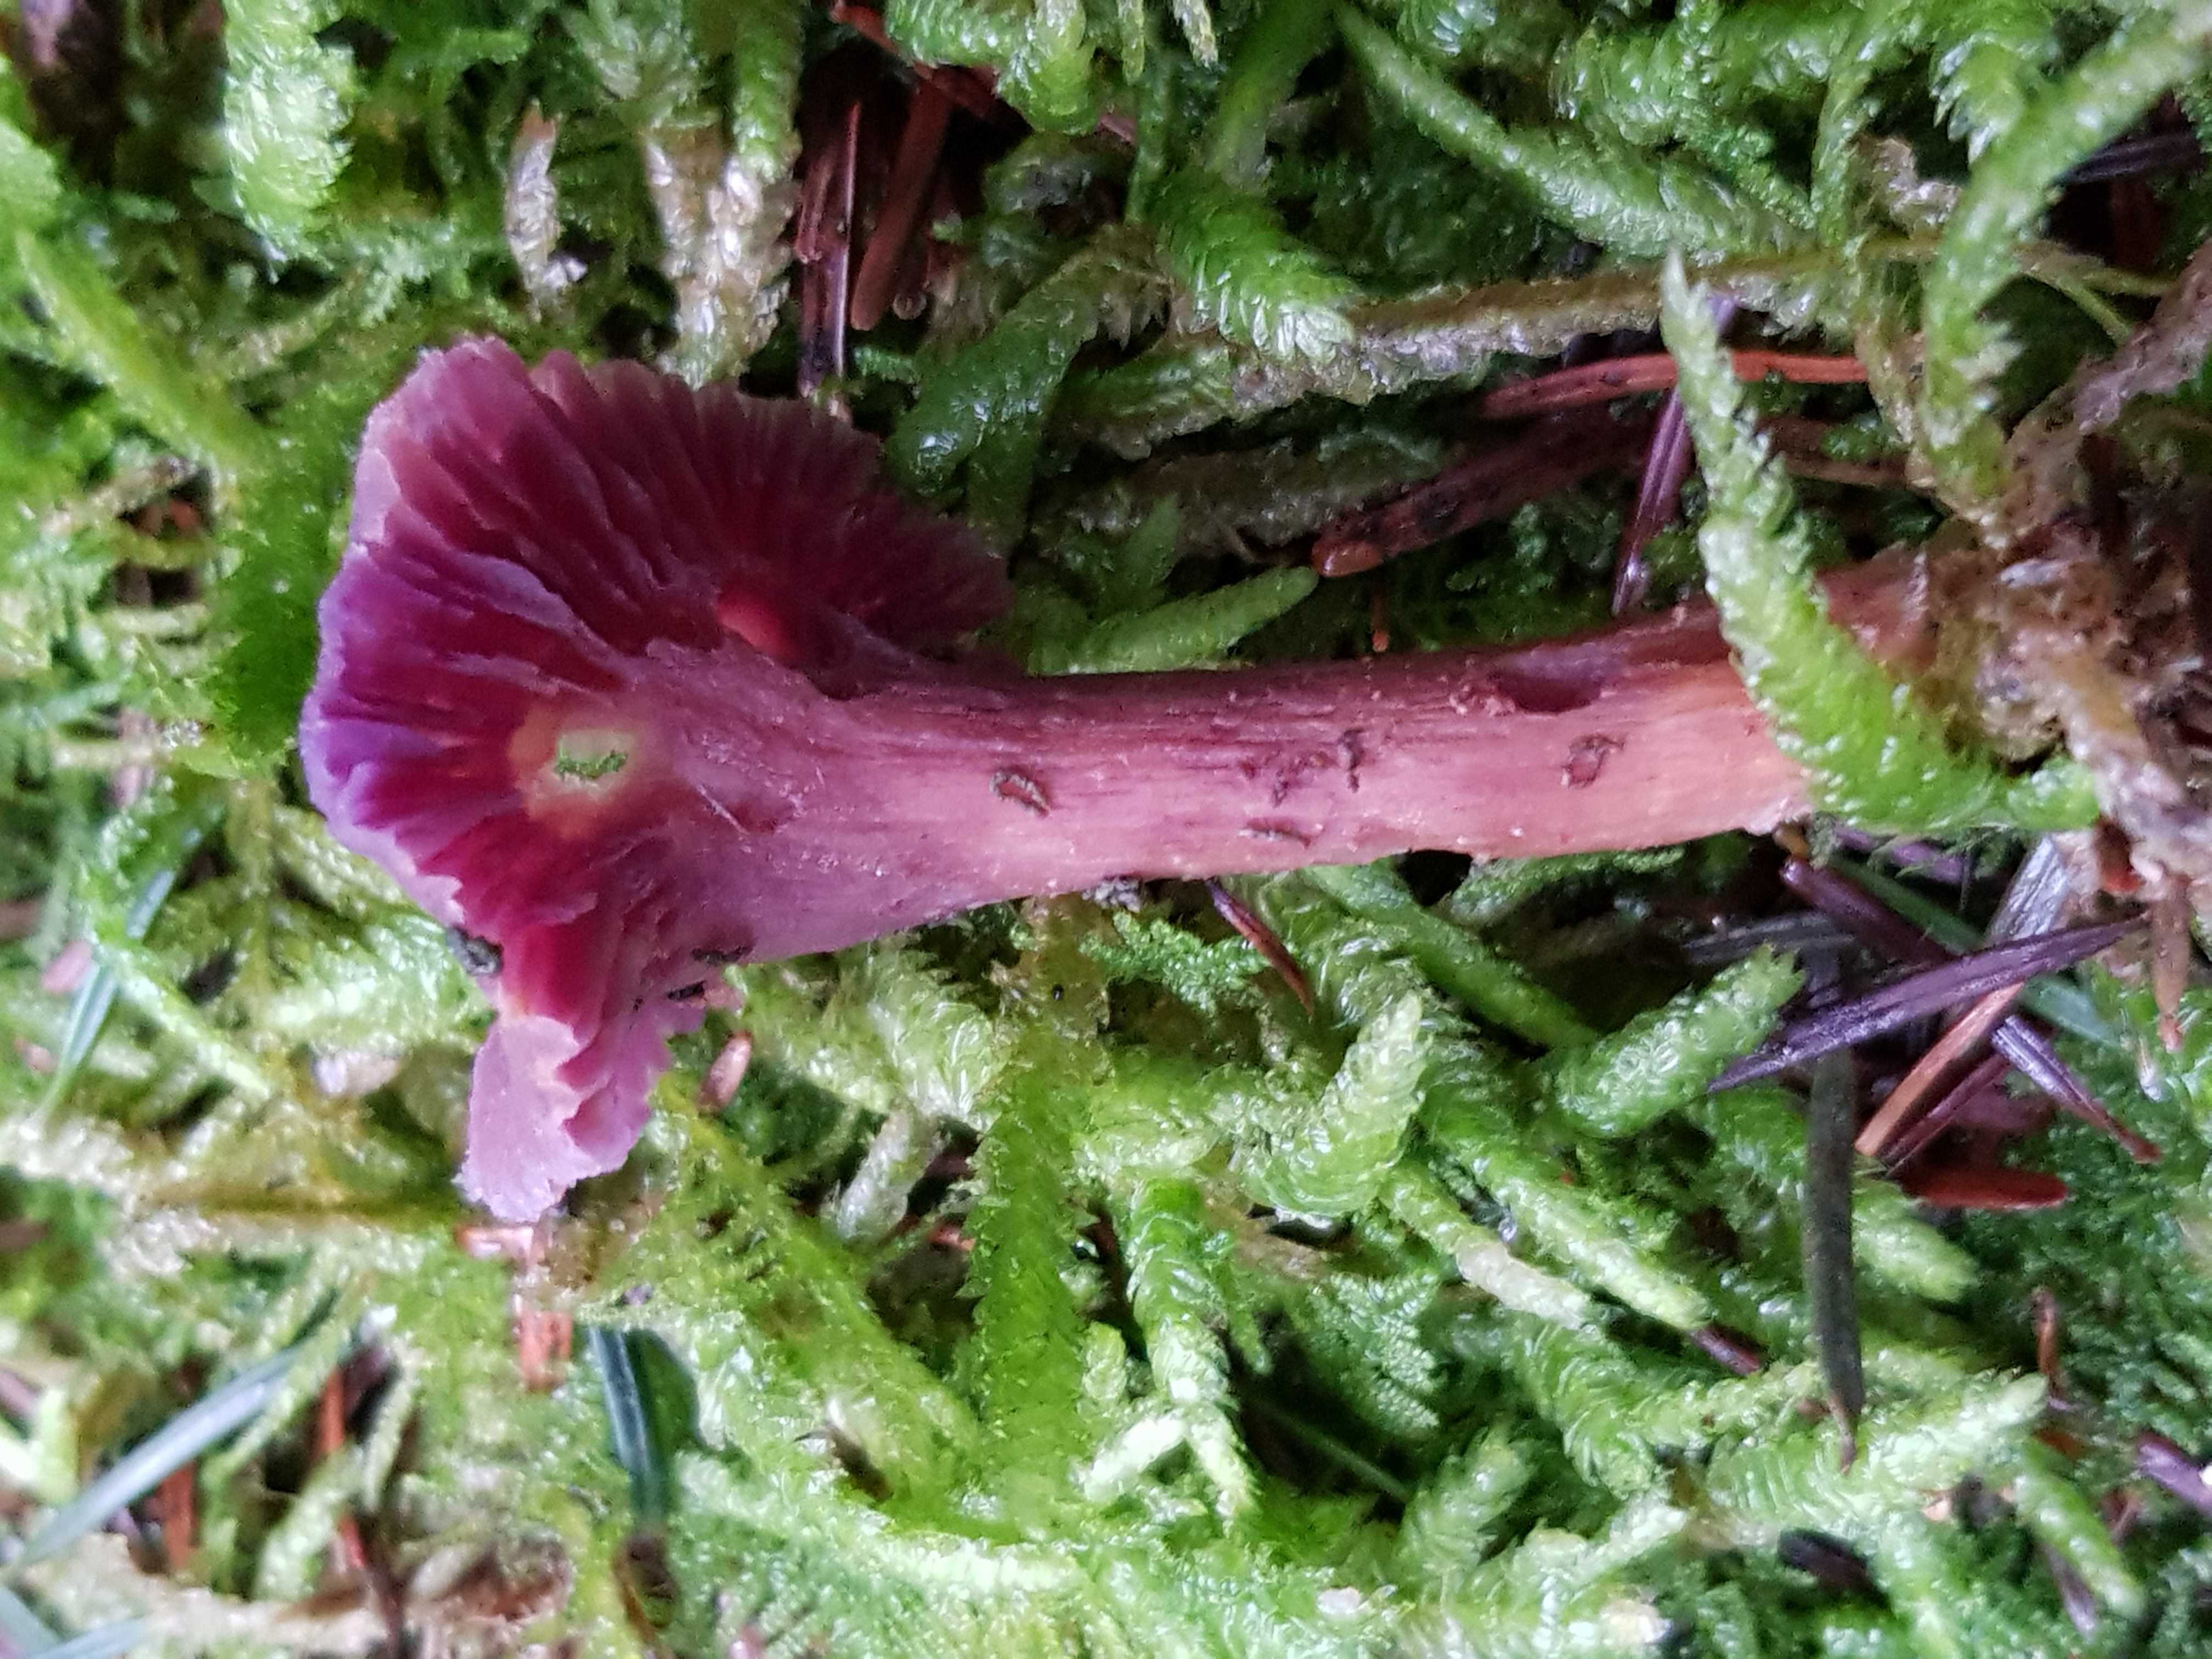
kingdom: Fungi
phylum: Basidiomycota
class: Agaricomycetes
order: Agaricales
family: Hydnangiaceae
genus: Laccaria
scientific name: Laccaria amethystina
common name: violet ametysthat
